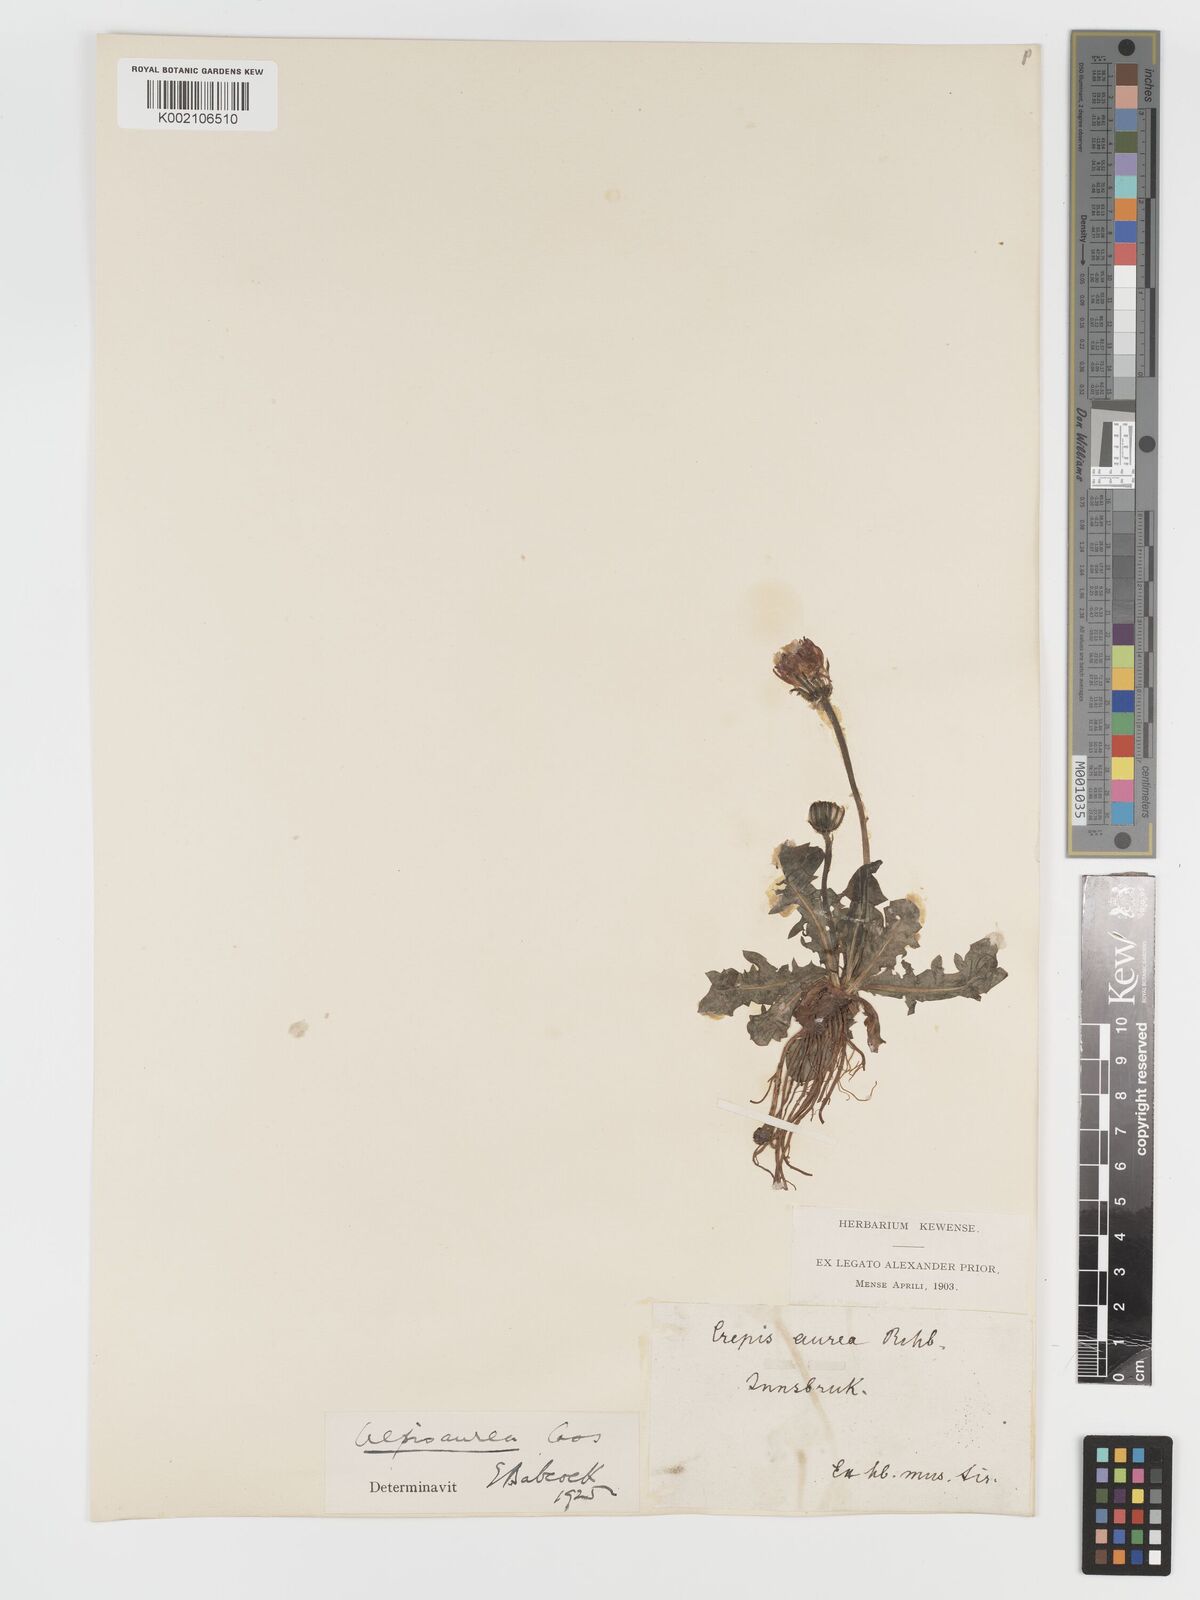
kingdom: Plantae
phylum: Tracheophyta
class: Magnoliopsida
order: Asterales
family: Asteraceae
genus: Crepis
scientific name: Crepis aurea
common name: Golden hawk's-beard
